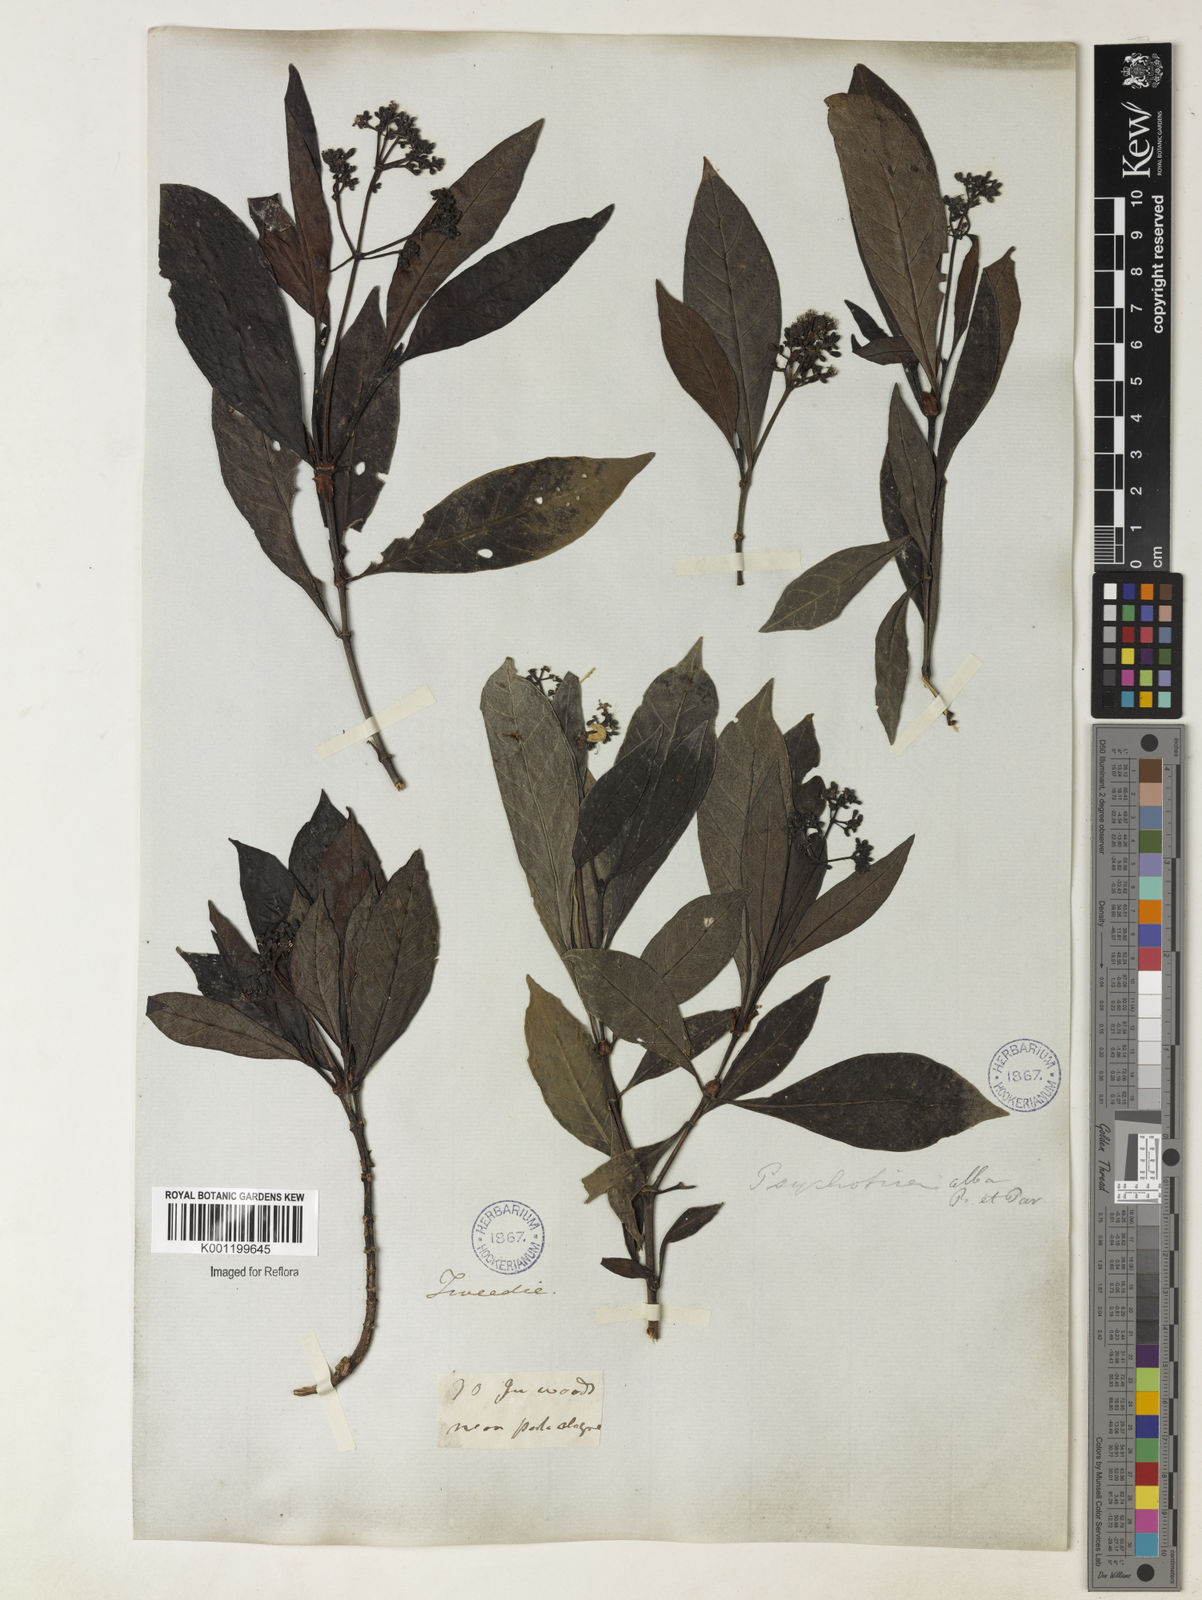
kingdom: Plantae
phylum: Tracheophyta
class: Magnoliopsida
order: Gentianales
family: Rubiaceae
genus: Psychotria
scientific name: Psychotria carthagenensis
